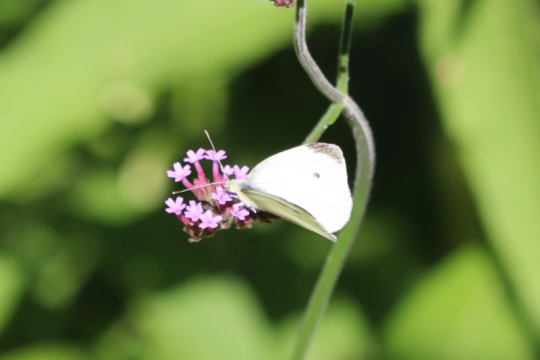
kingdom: Animalia
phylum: Arthropoda
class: Insecta
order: Lepidoptera
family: Pieridae
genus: Pieris
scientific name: Pieris rapae
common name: Cabbage White
